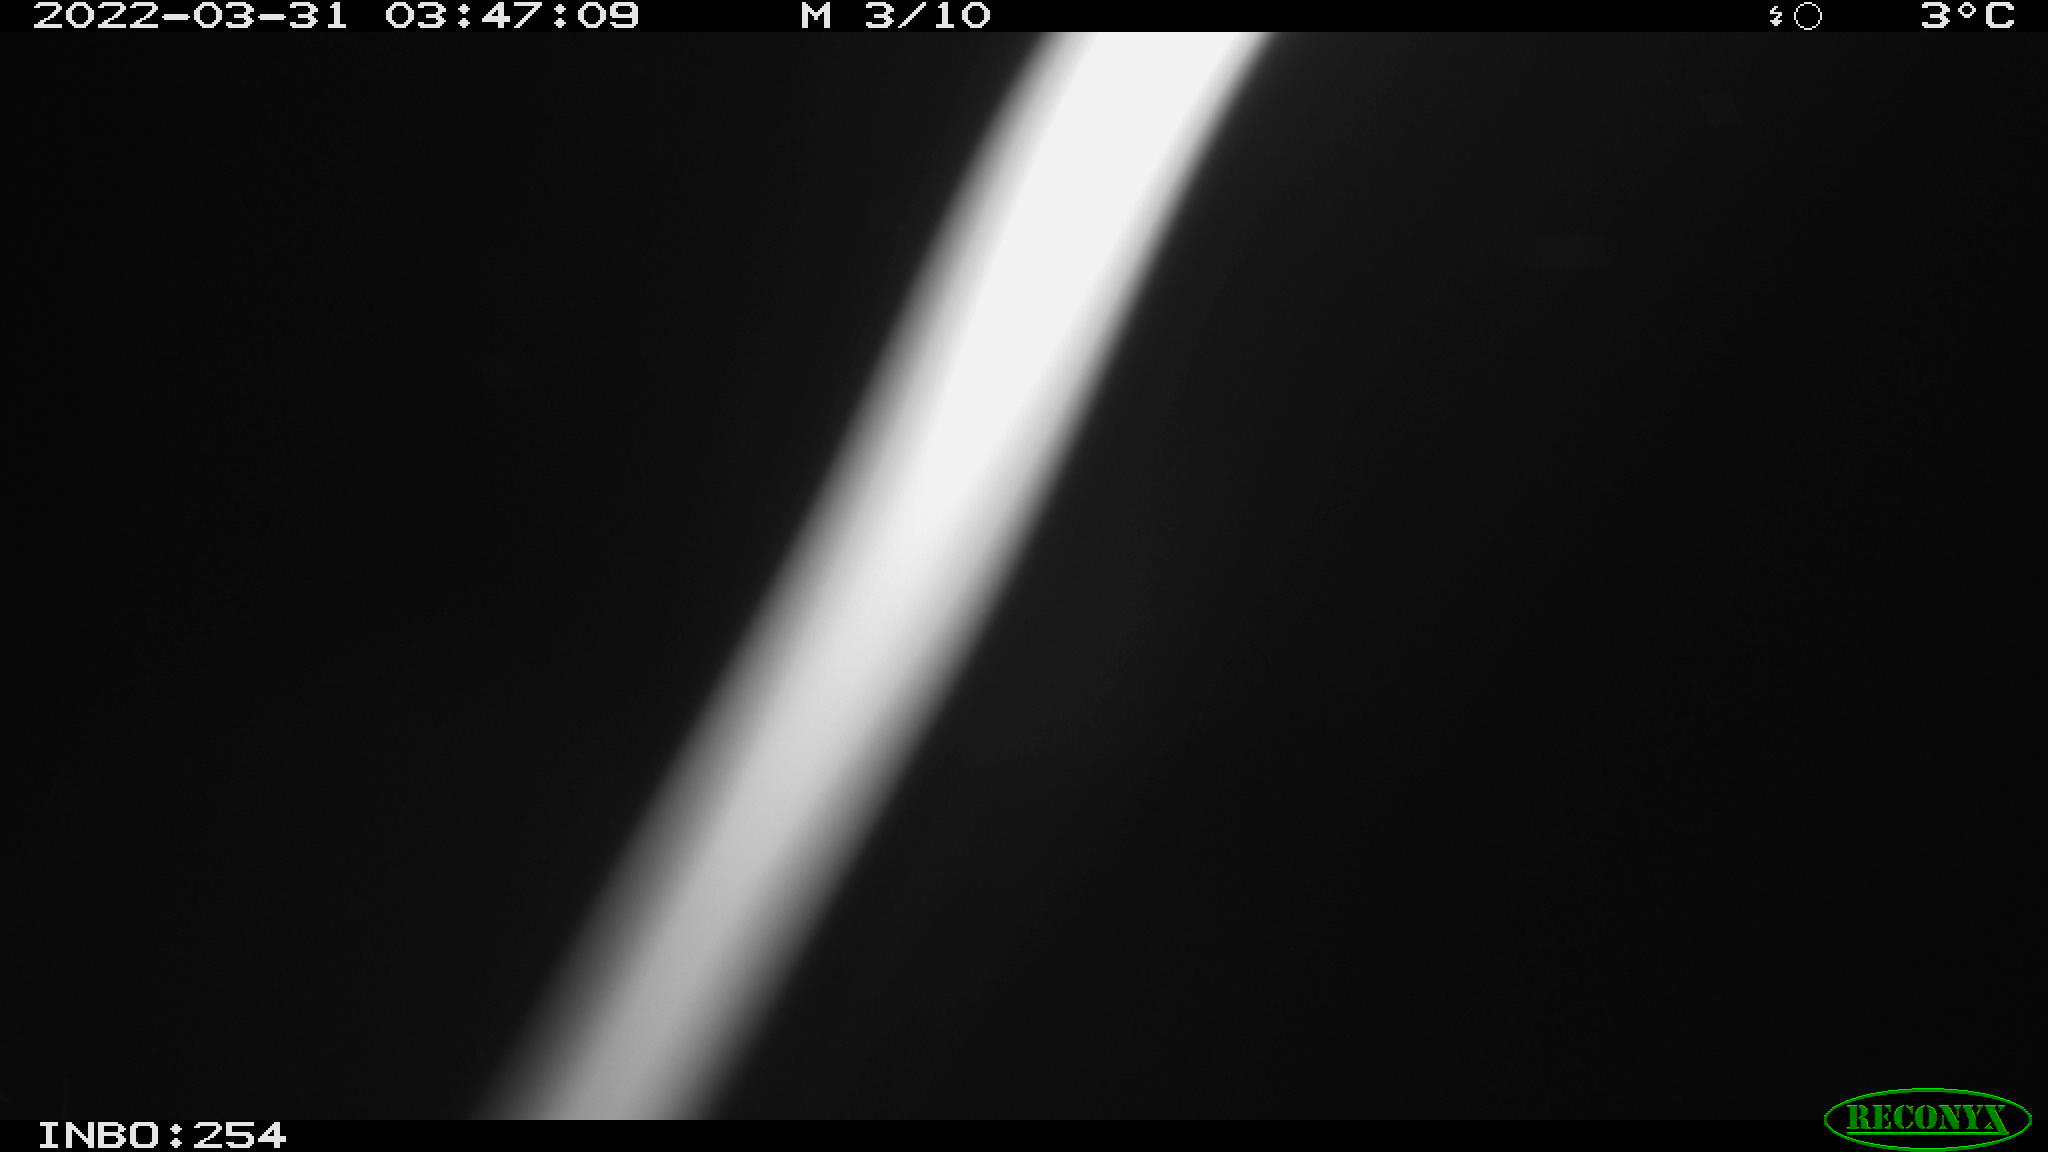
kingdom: Animalia
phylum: Chordata
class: Aves
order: Anseriformes
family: Anatidae
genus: Anas
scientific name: Anas platyrhynchos
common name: Mallard
